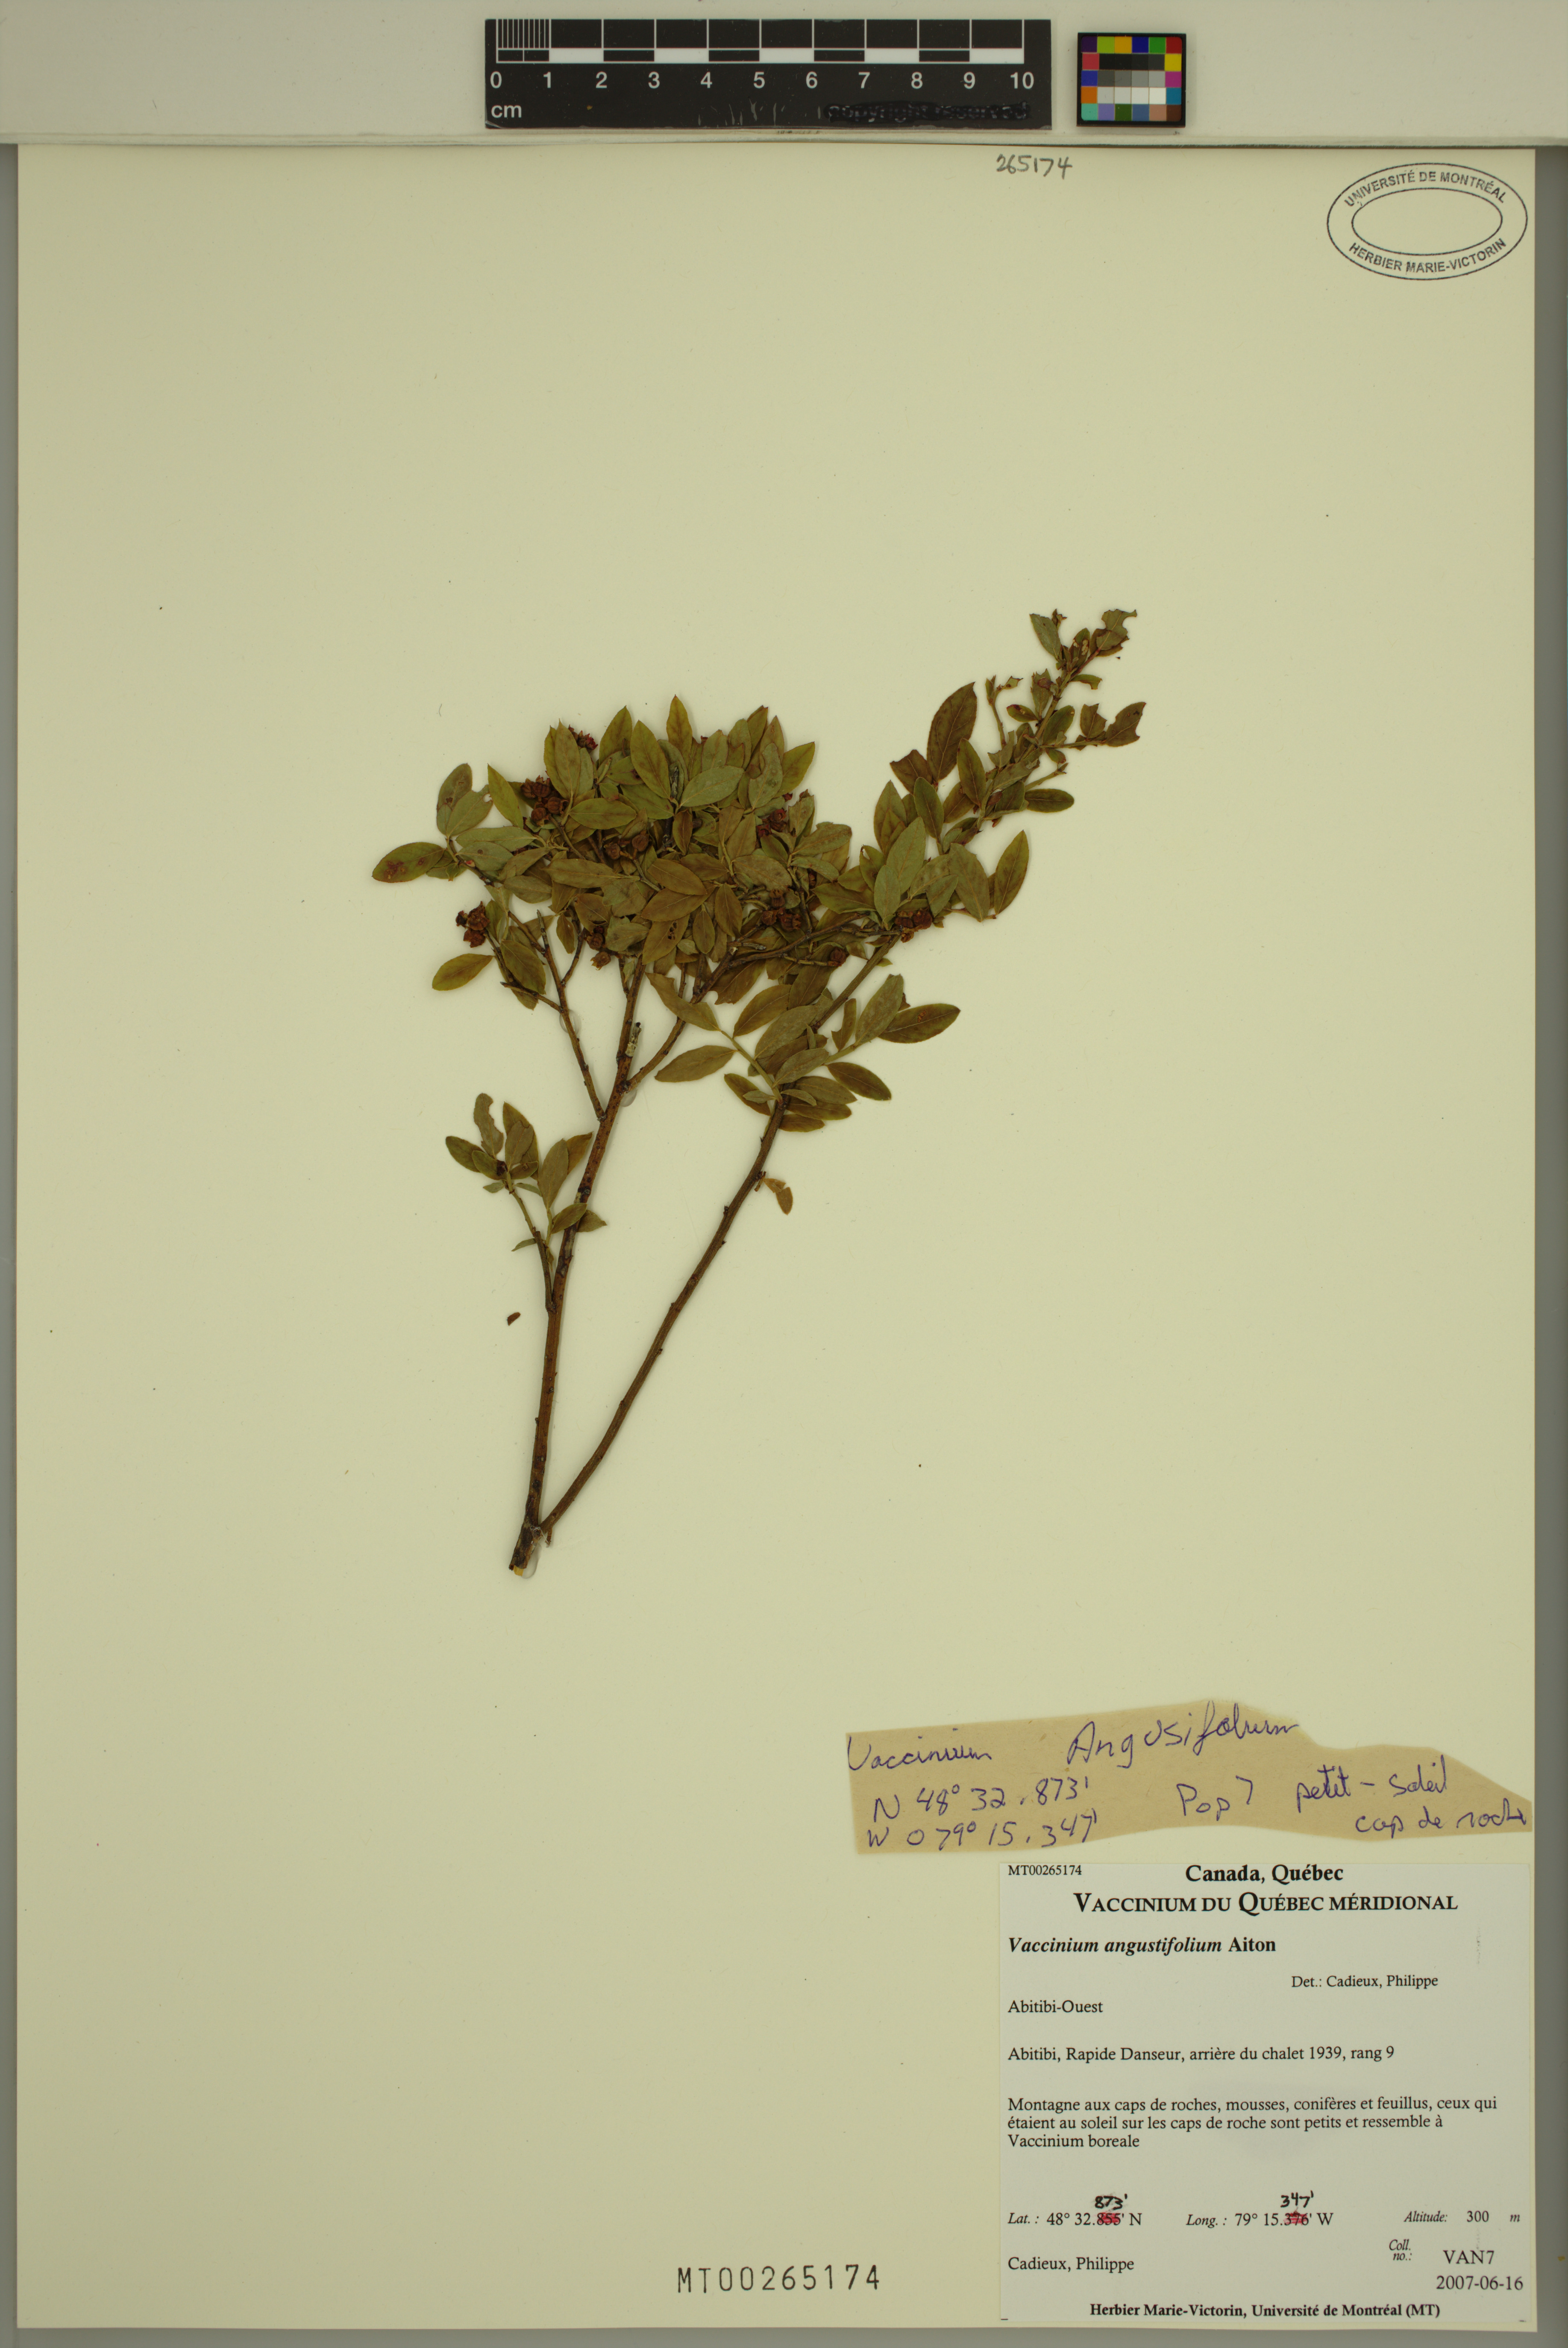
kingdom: Plantae
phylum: Tracheophyta
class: Magnoliopsida
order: Ericales
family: Ericaceae
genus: Vaccinium
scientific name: Vaccinium angustifolium
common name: Early lowbush blueberry
